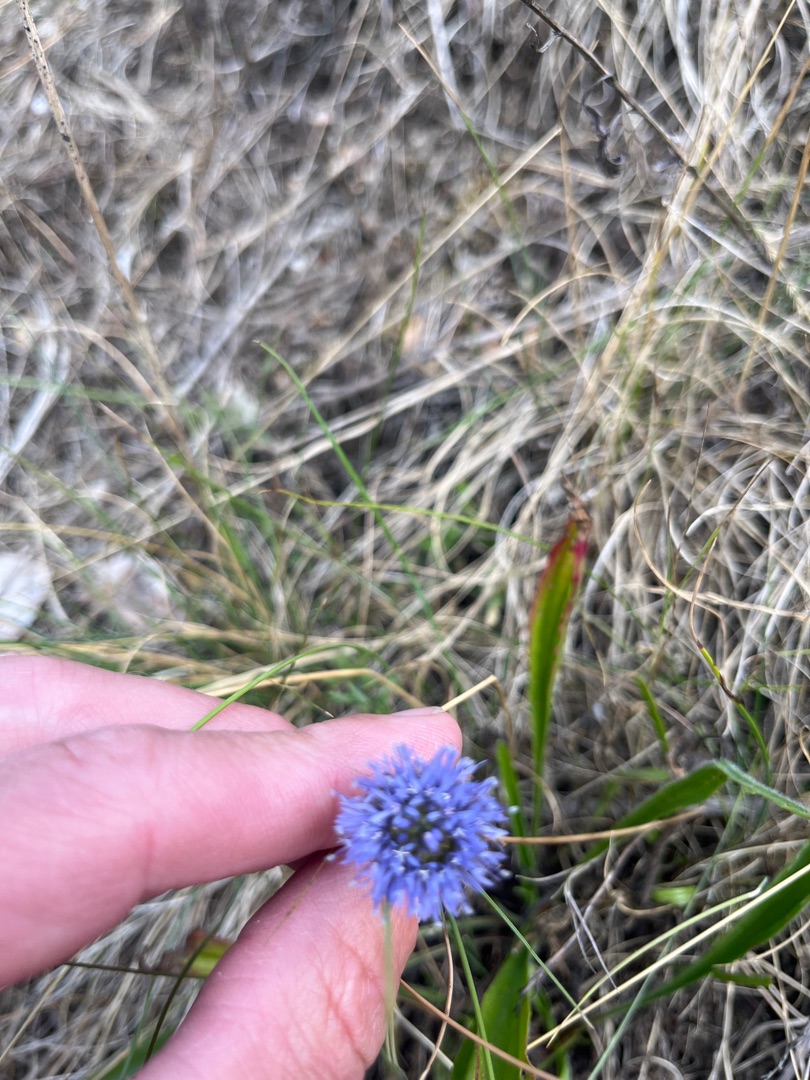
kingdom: Plantae
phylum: Tracheophyta
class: Magnoliopsida
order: Asterales
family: Campanulaceae
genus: Jasione
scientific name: Jasione montana
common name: Blåmunke
